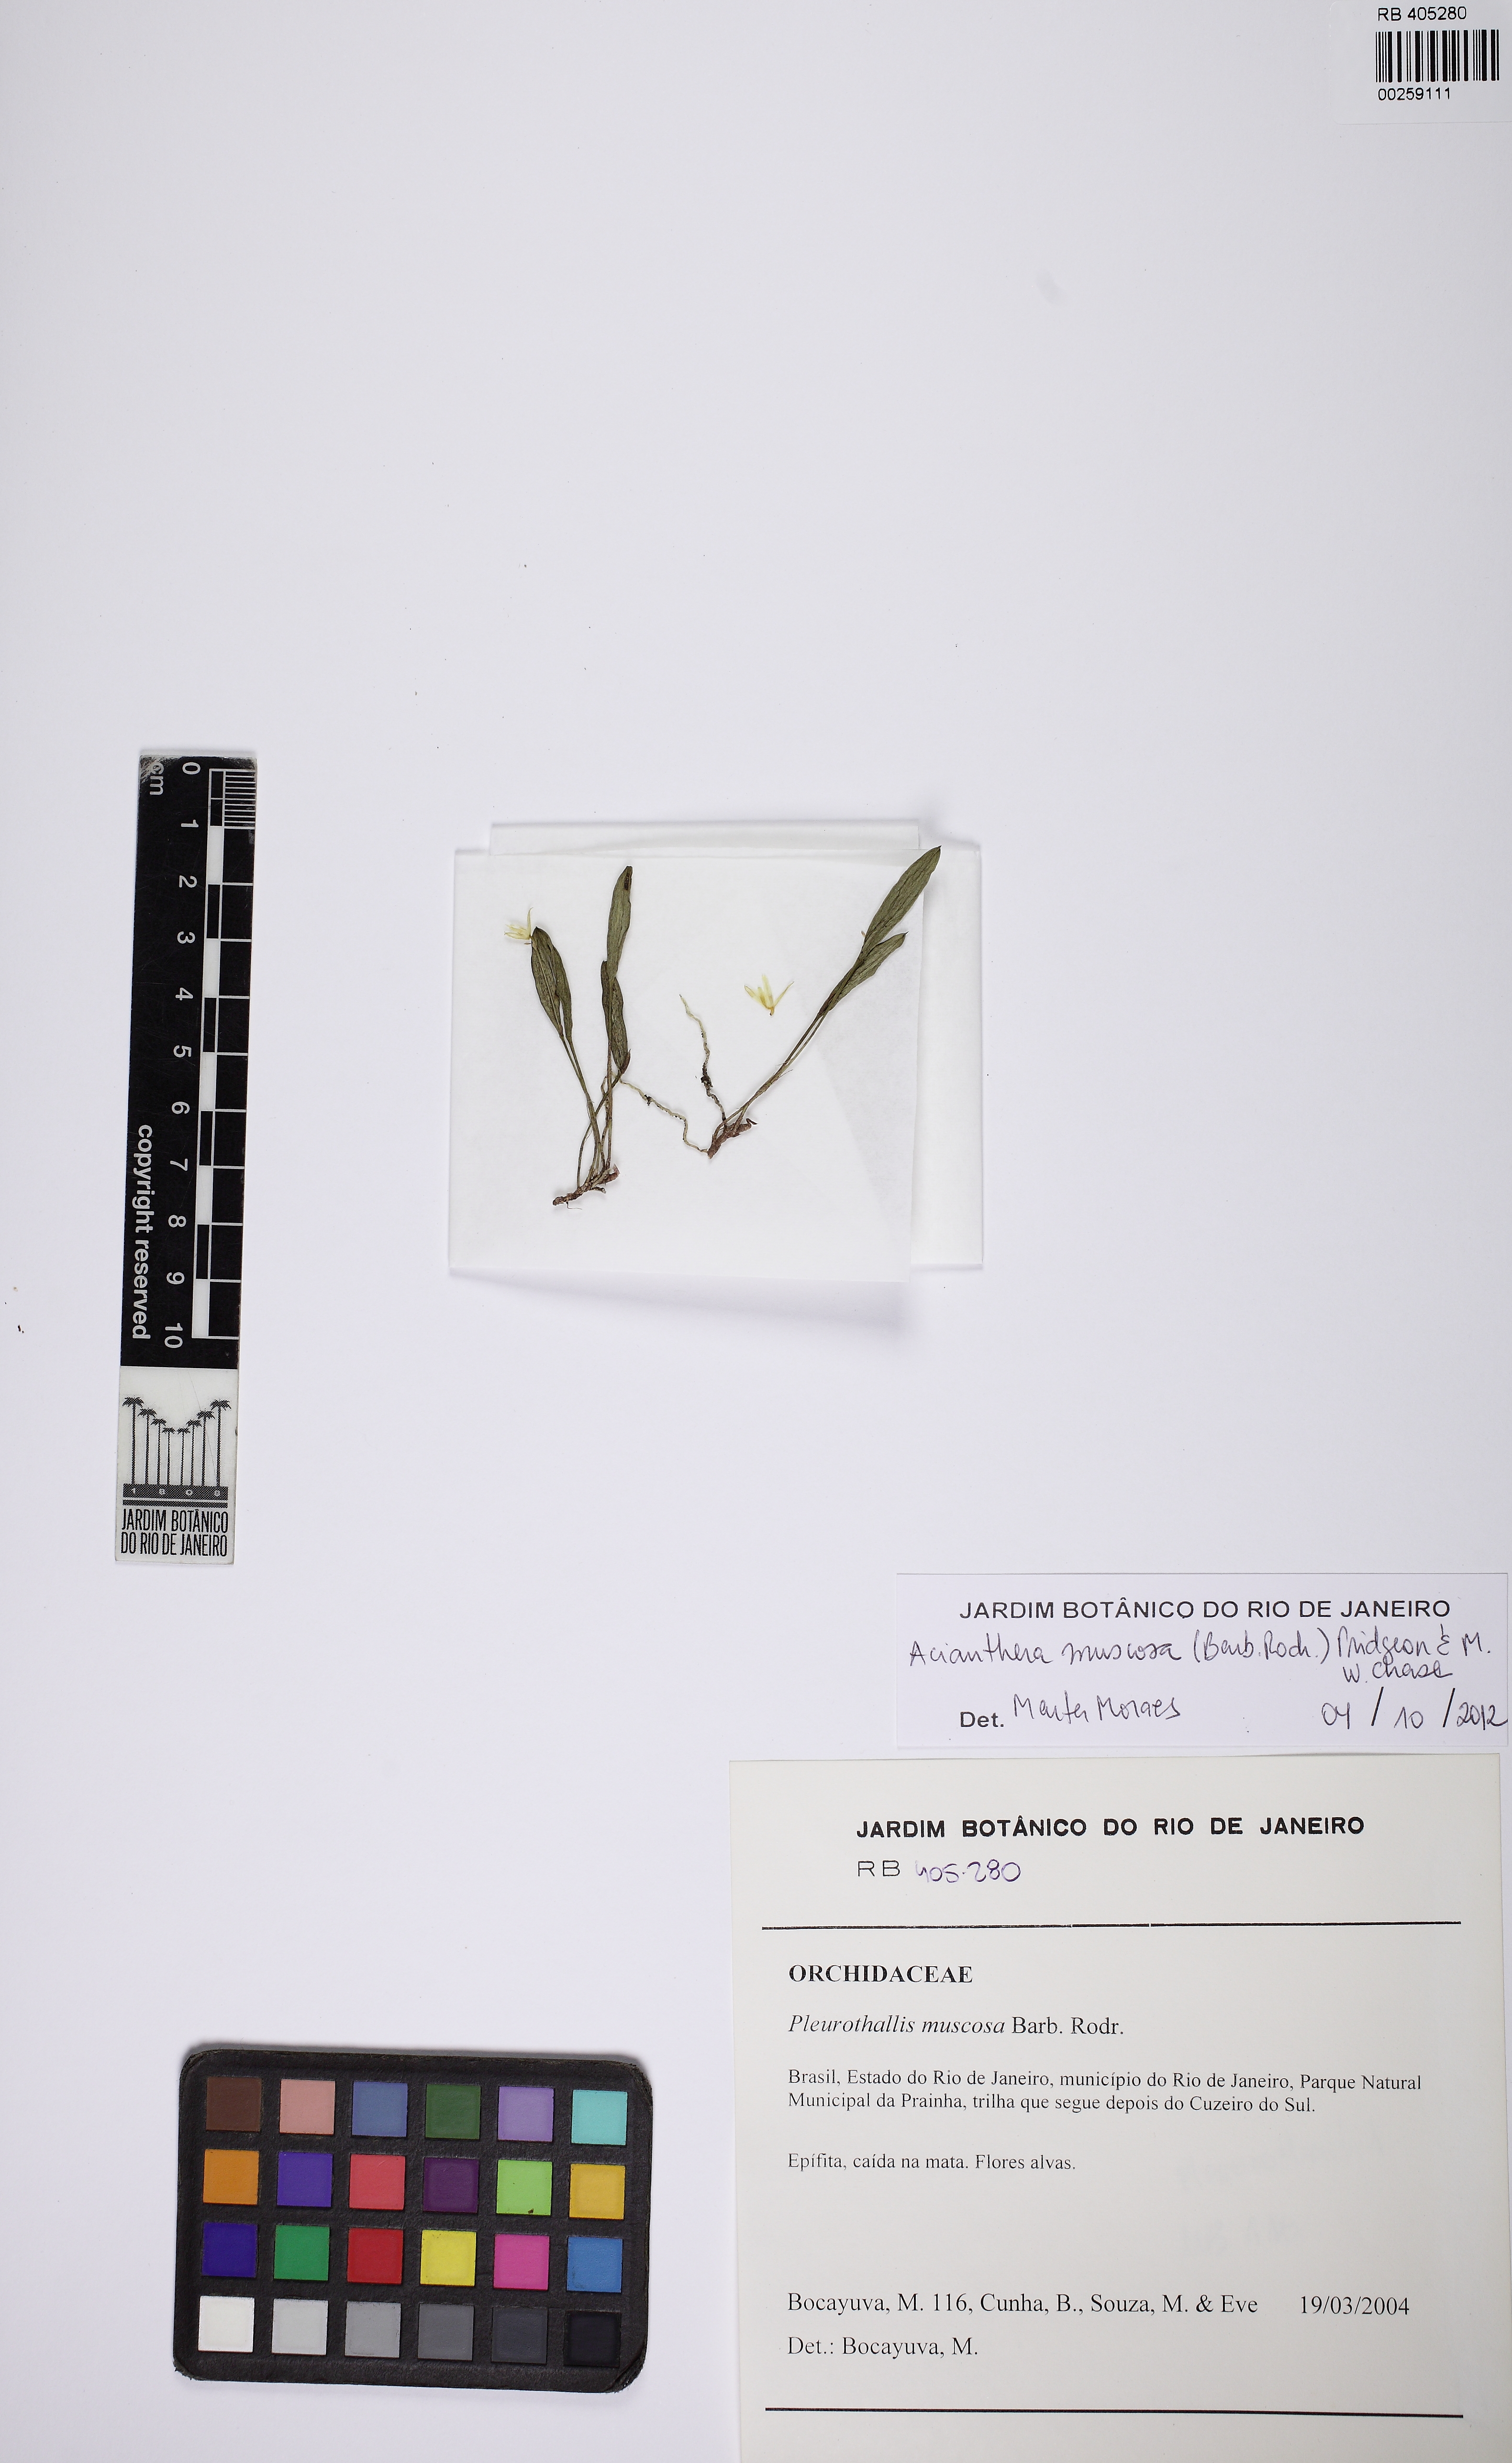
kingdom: Plantae
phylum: Tracheophyta
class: Liliopsida
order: Asparagales
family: Orchidaceae
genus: Acianthera
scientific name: Acianthera muscosa
